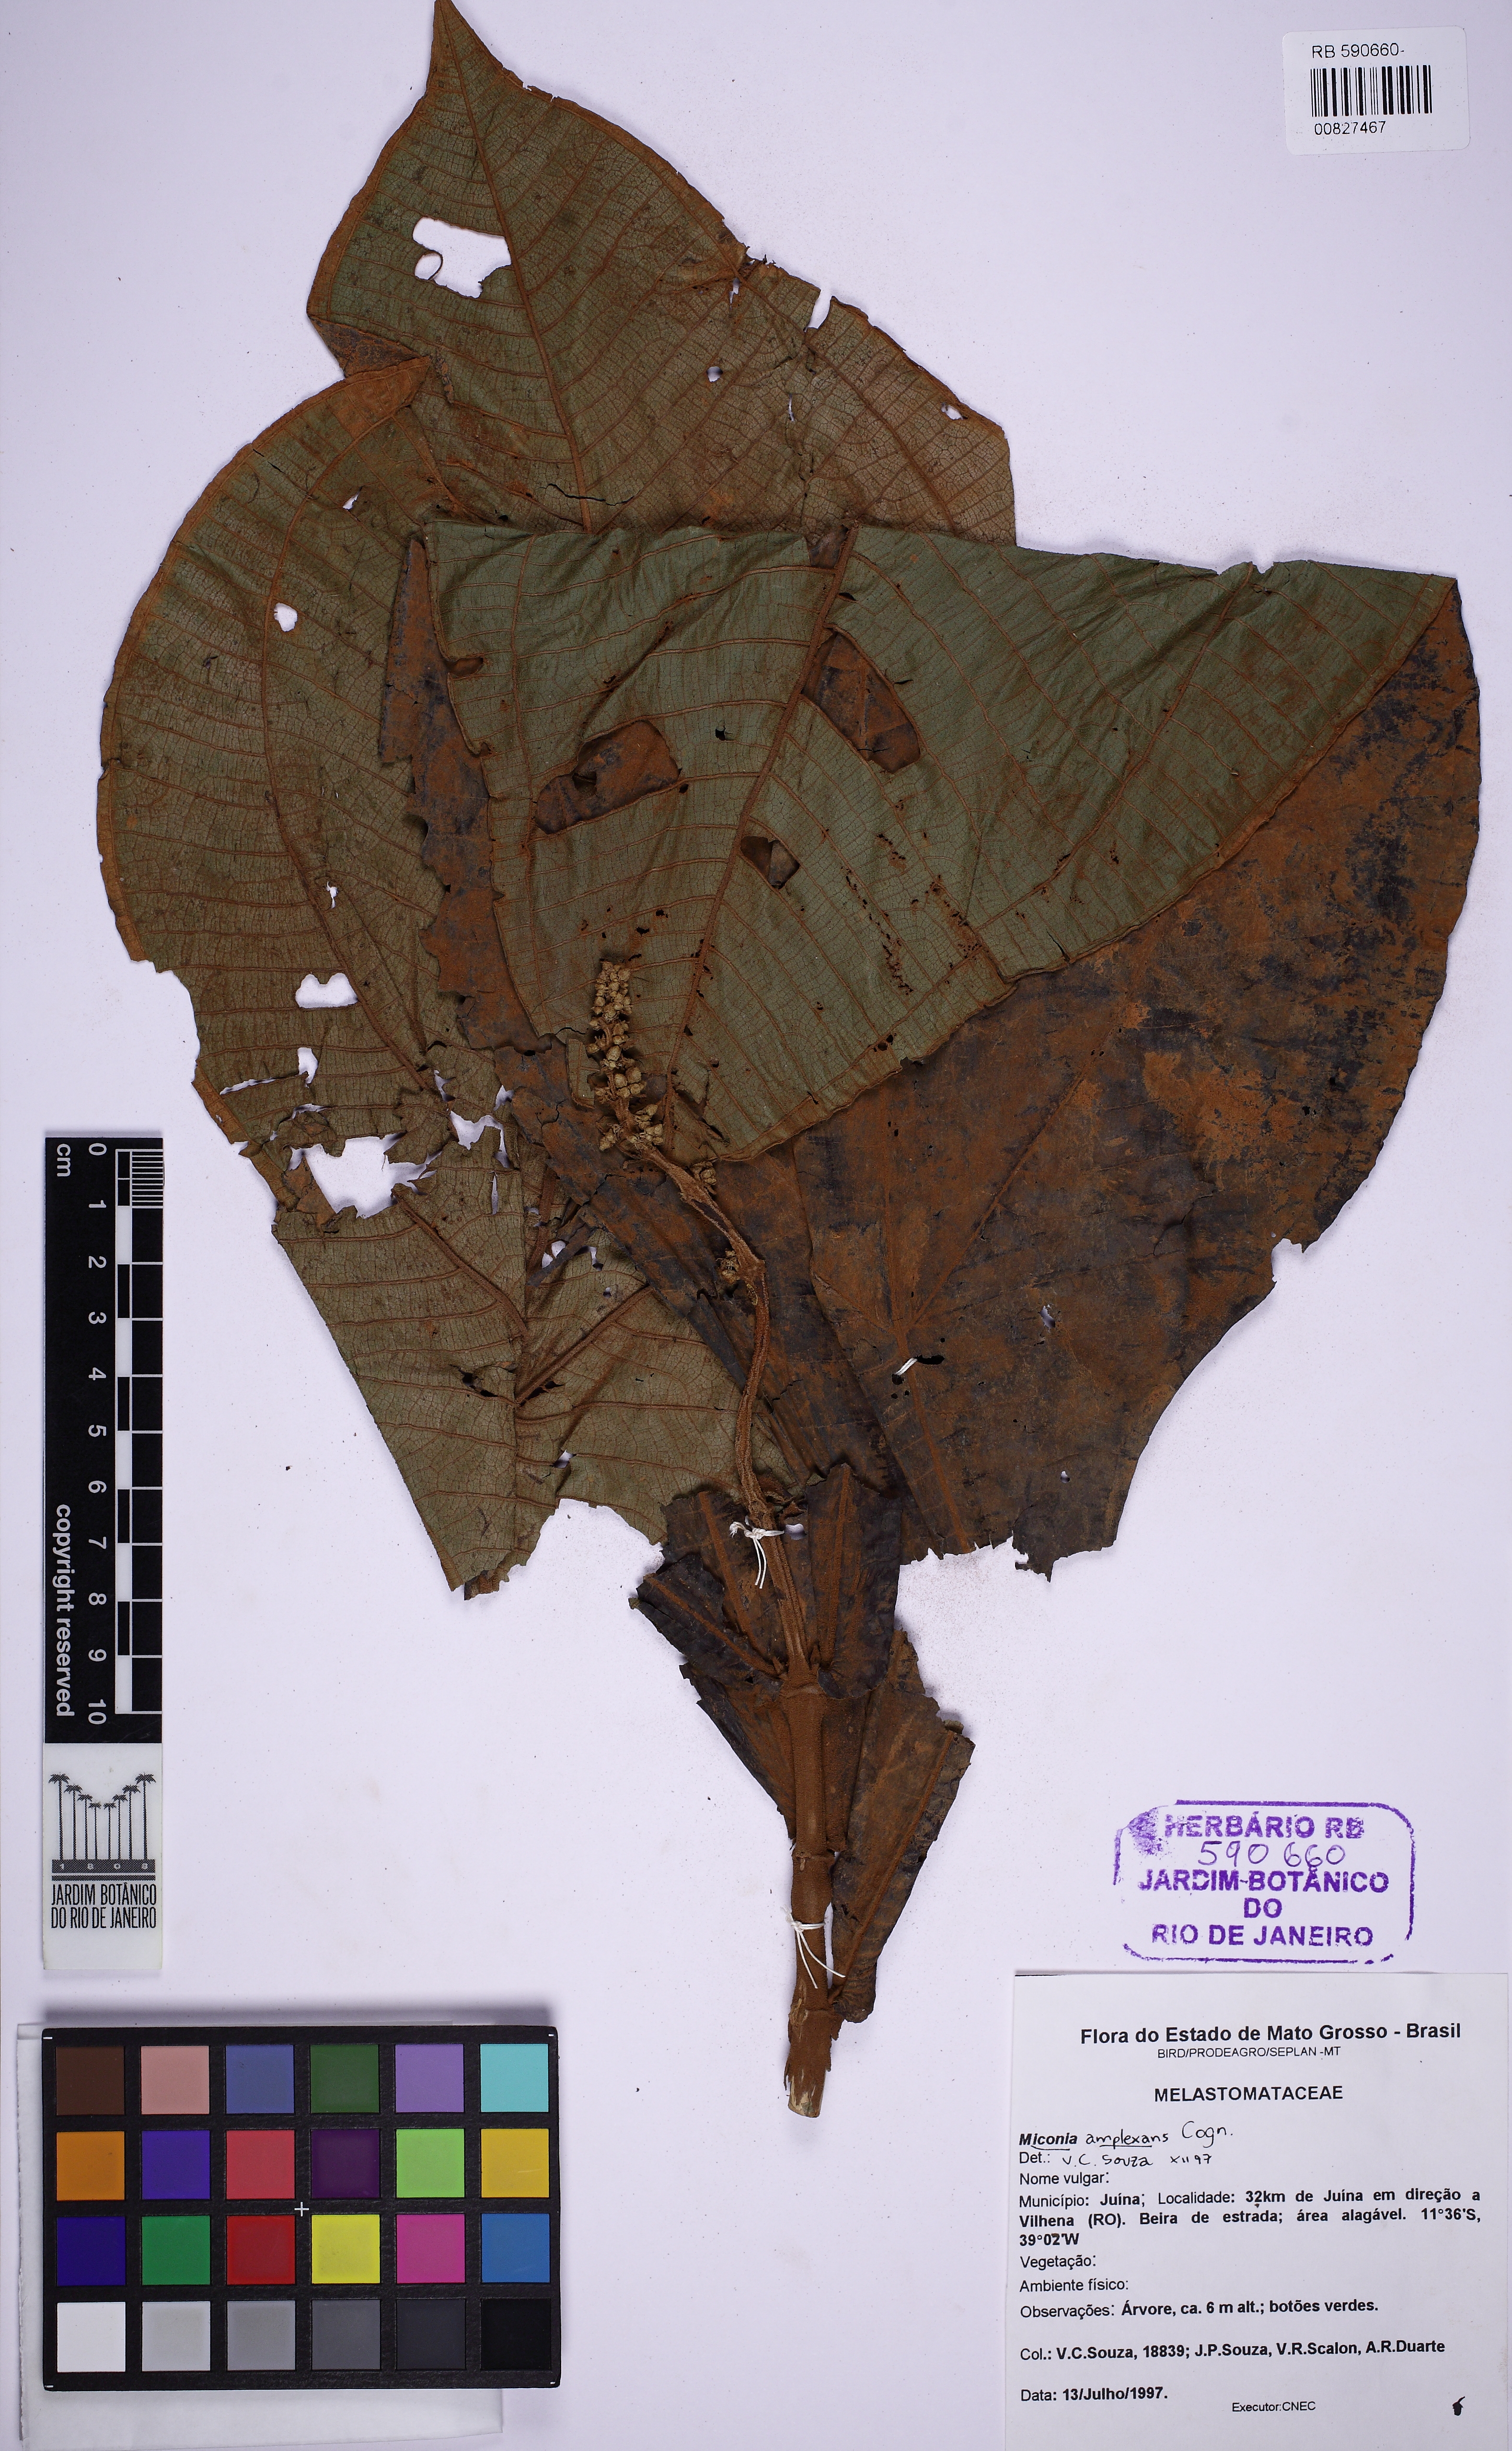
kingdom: Plantae
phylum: Tracheophyta
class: Magnoliopsida
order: Myrtales
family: Melastomataceae
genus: Miconia
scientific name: Miconia tomentosa
